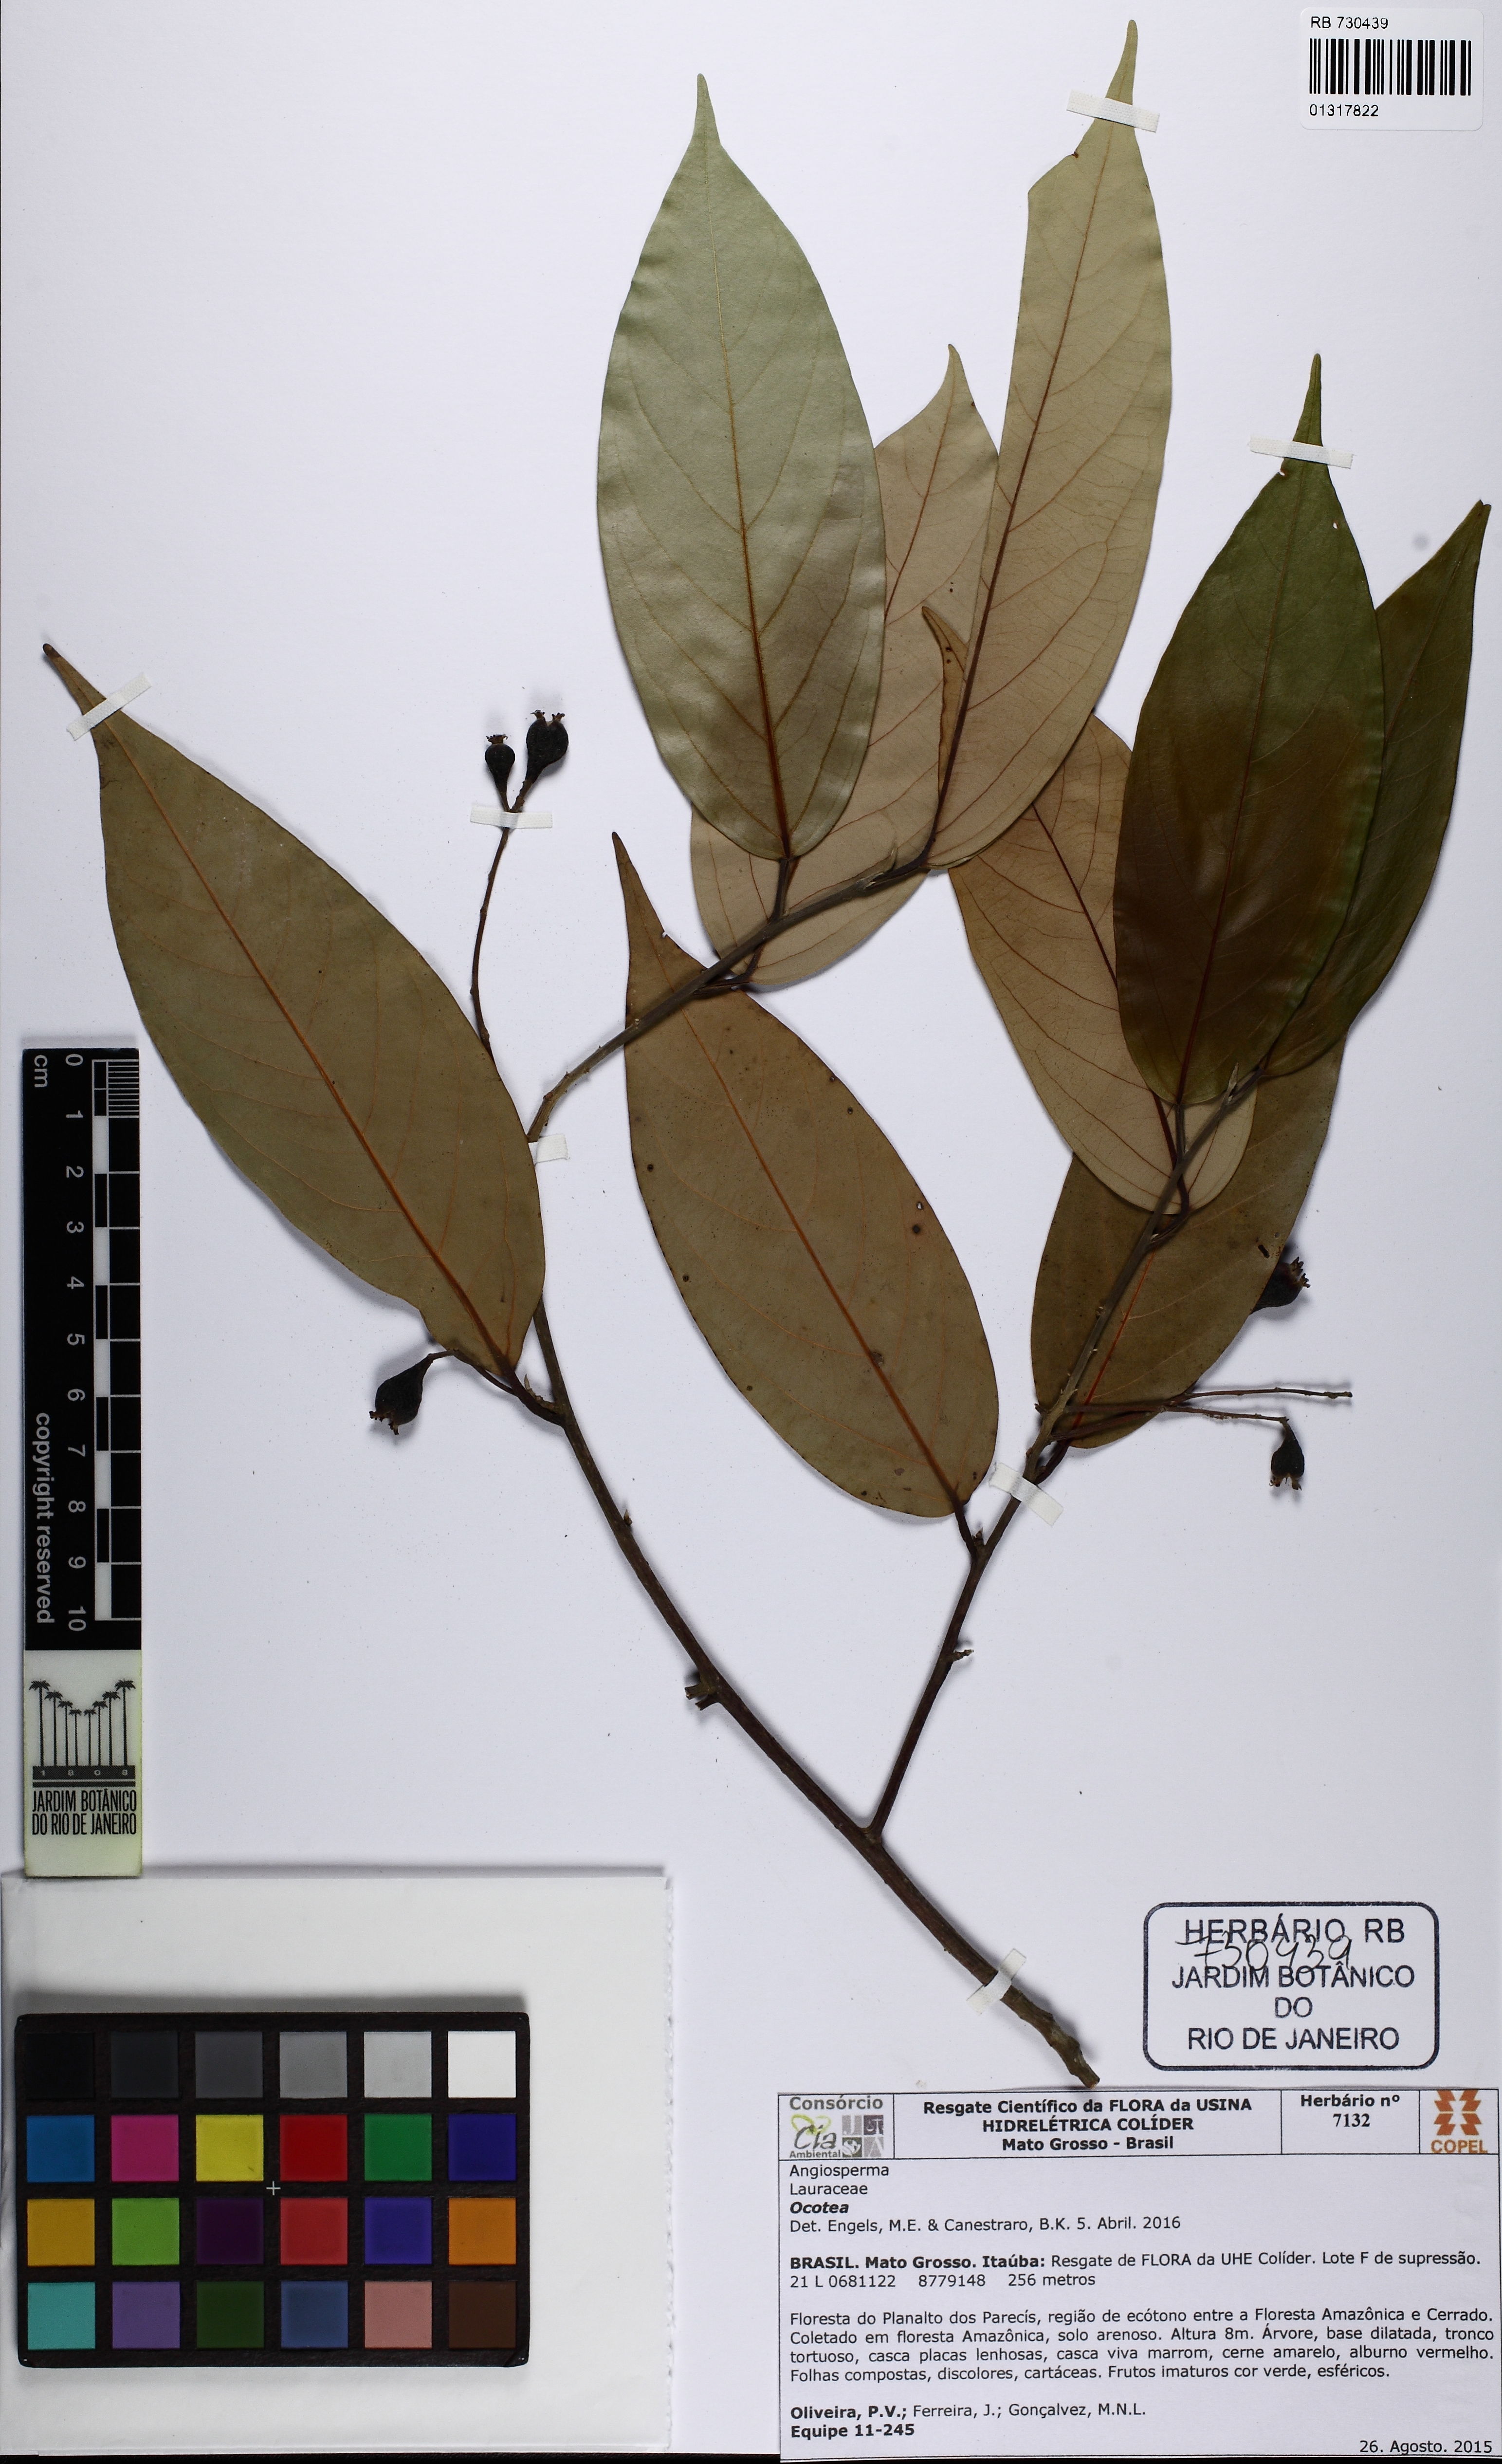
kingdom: Plantae
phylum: Tracheophyta
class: Magnoliopsida
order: Laurales
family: Lauraceae
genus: Ocotea
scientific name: Ocotea
